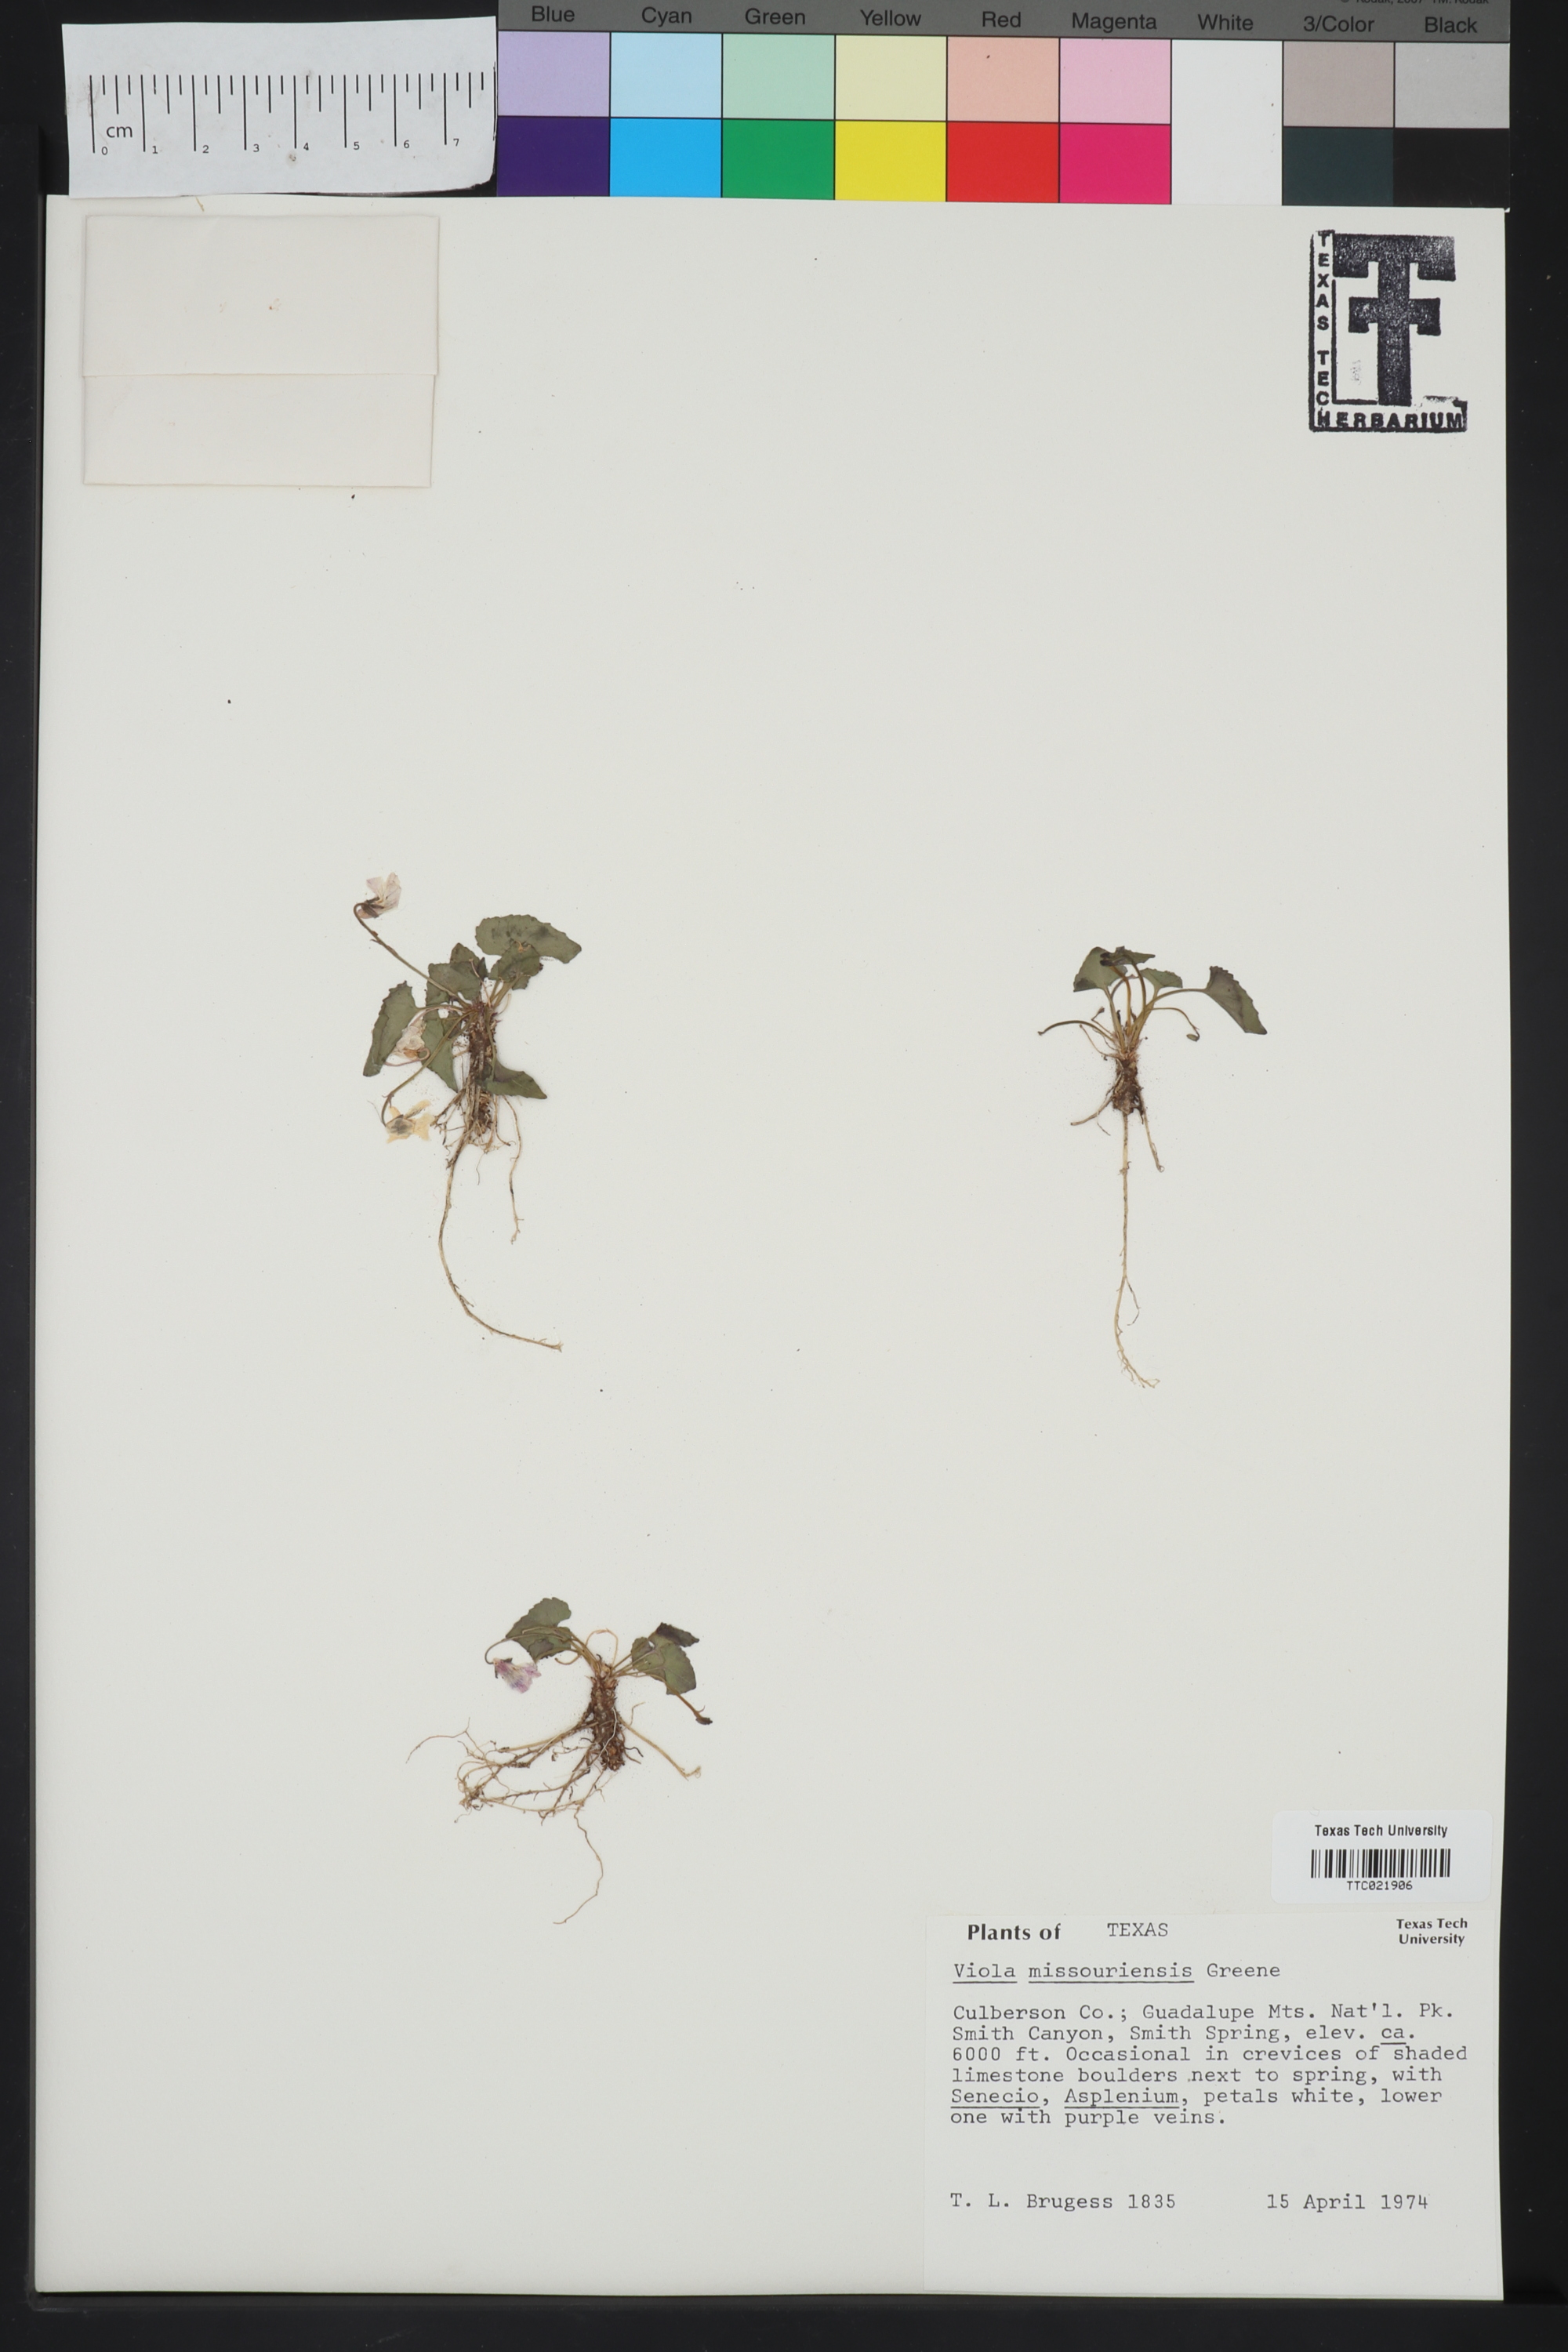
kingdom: Plantae
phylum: Tracheophyta
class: Magnoliopsida
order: Malpighiales
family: Violaceae
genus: Viola
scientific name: Viola missouriensis
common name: Missouri violet
